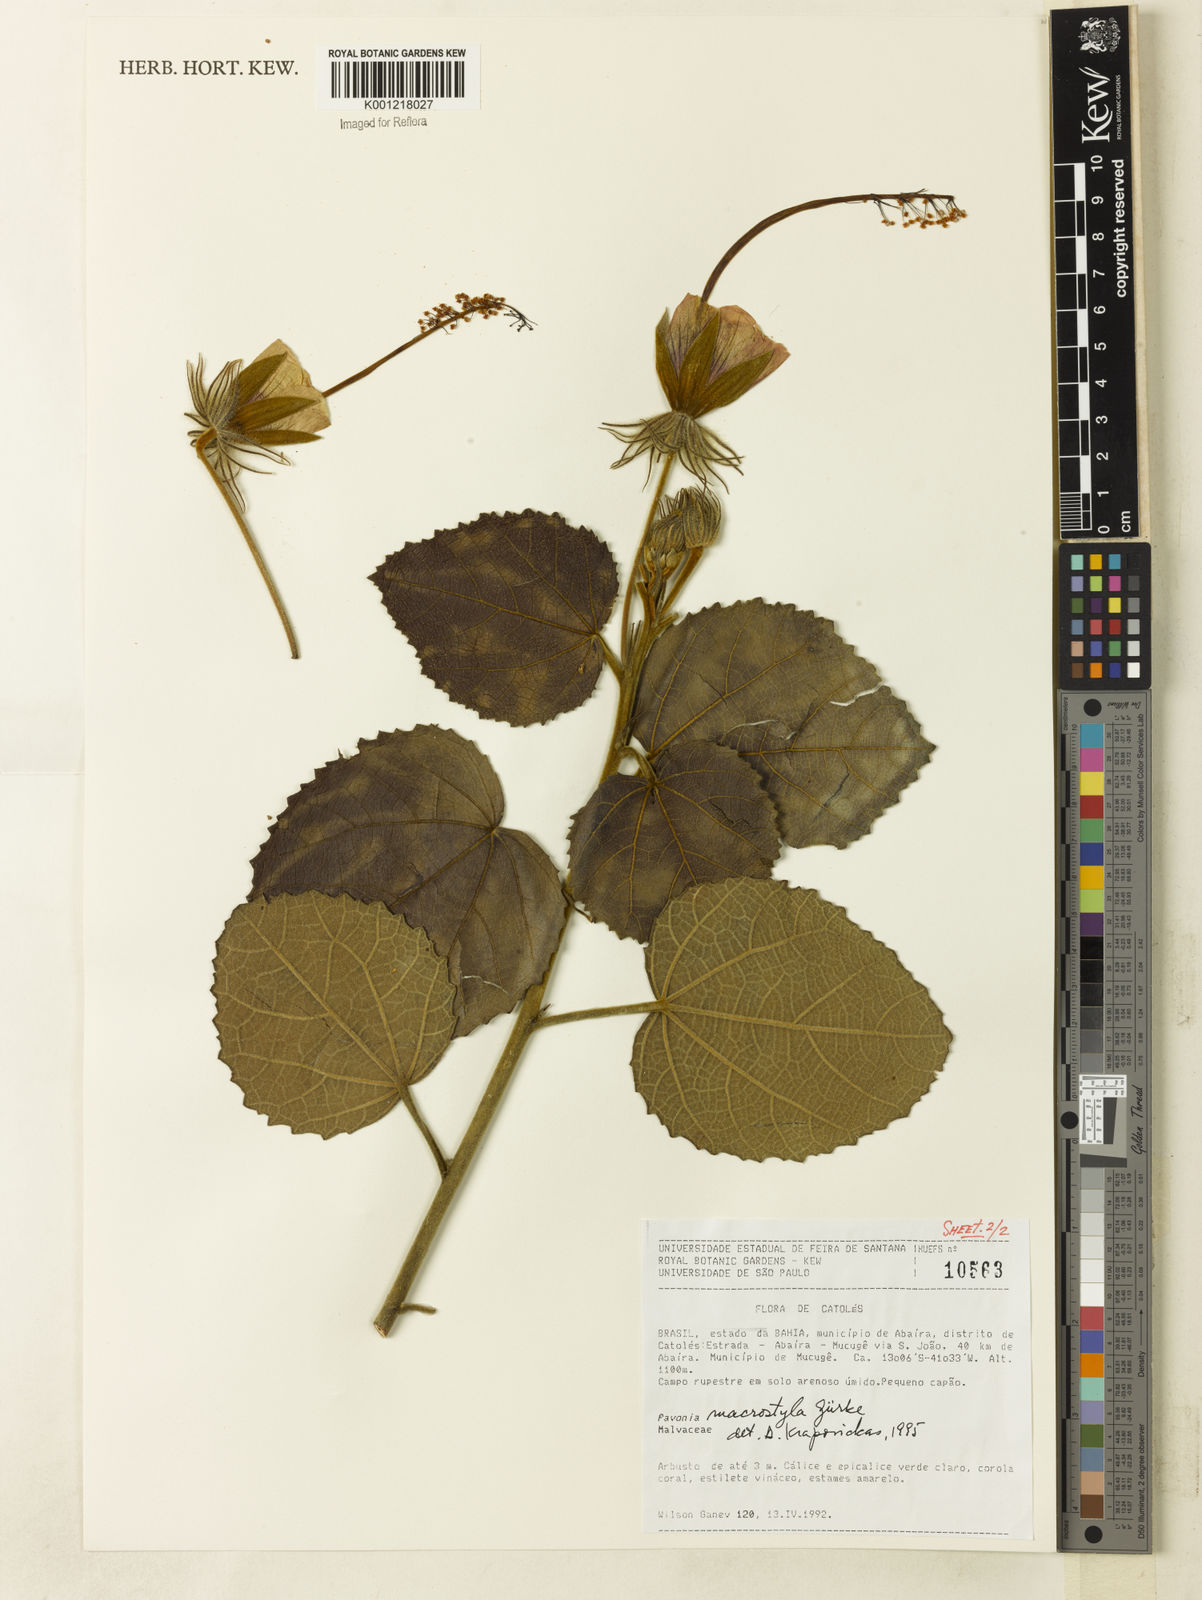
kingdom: Plantae
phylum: Tracheophyta
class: Magnoliopsida
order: Malvales
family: Malvaceae
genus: Pavonia
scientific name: Pavonia
